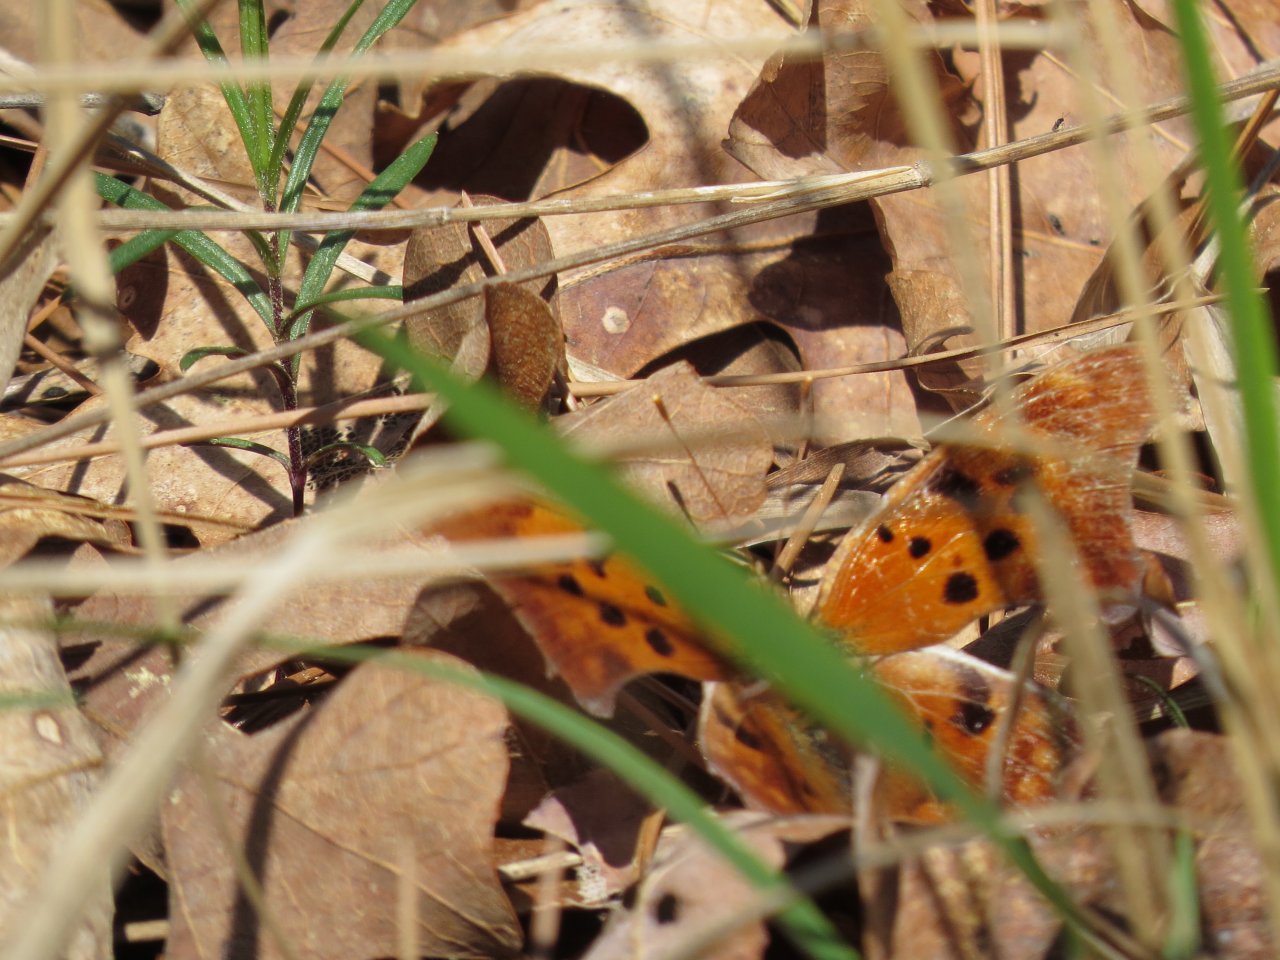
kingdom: Animalia
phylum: Arthropoda
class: Insecta
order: Lepidoptera
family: Nymphalidae
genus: Polygonia
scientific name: Polygonia interrogationis
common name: Question Mark
